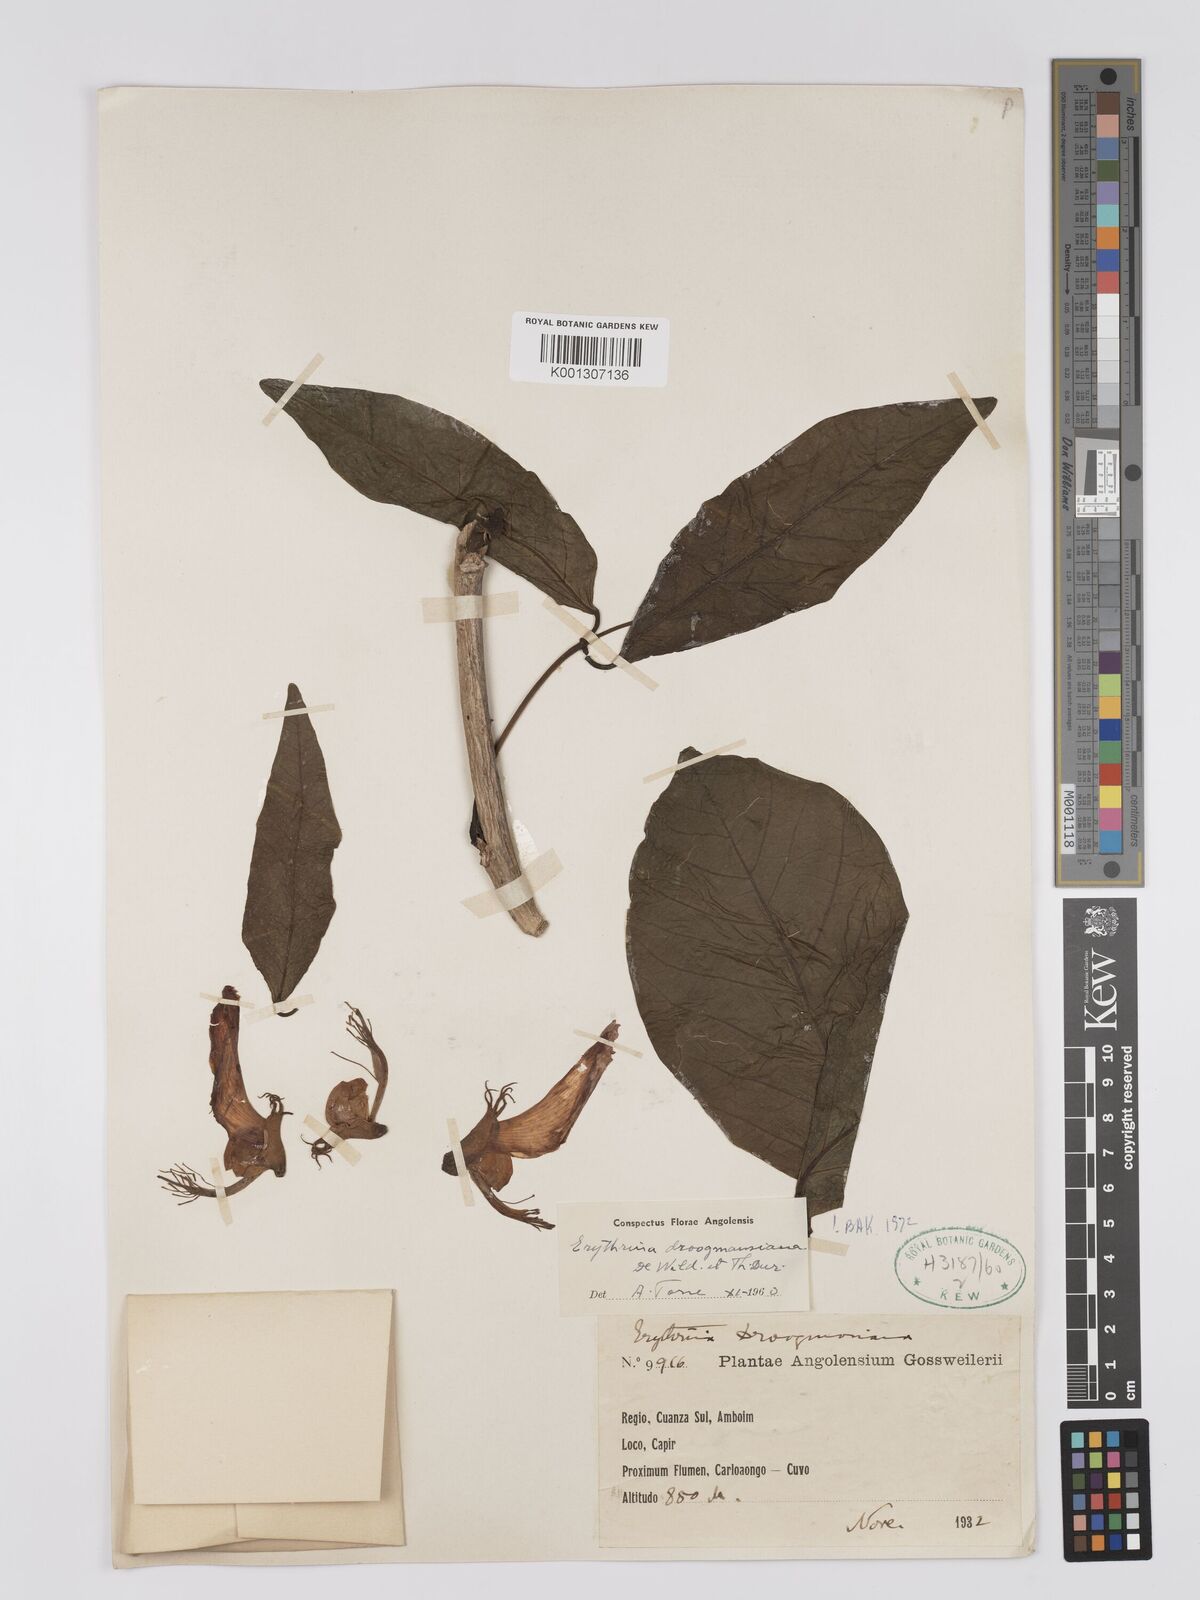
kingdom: Plantae
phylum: Tracheophyta
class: Magnoliopsida
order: Fabales
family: Fabaceae
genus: Erythrina
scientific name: Erythrina droogmansiana
